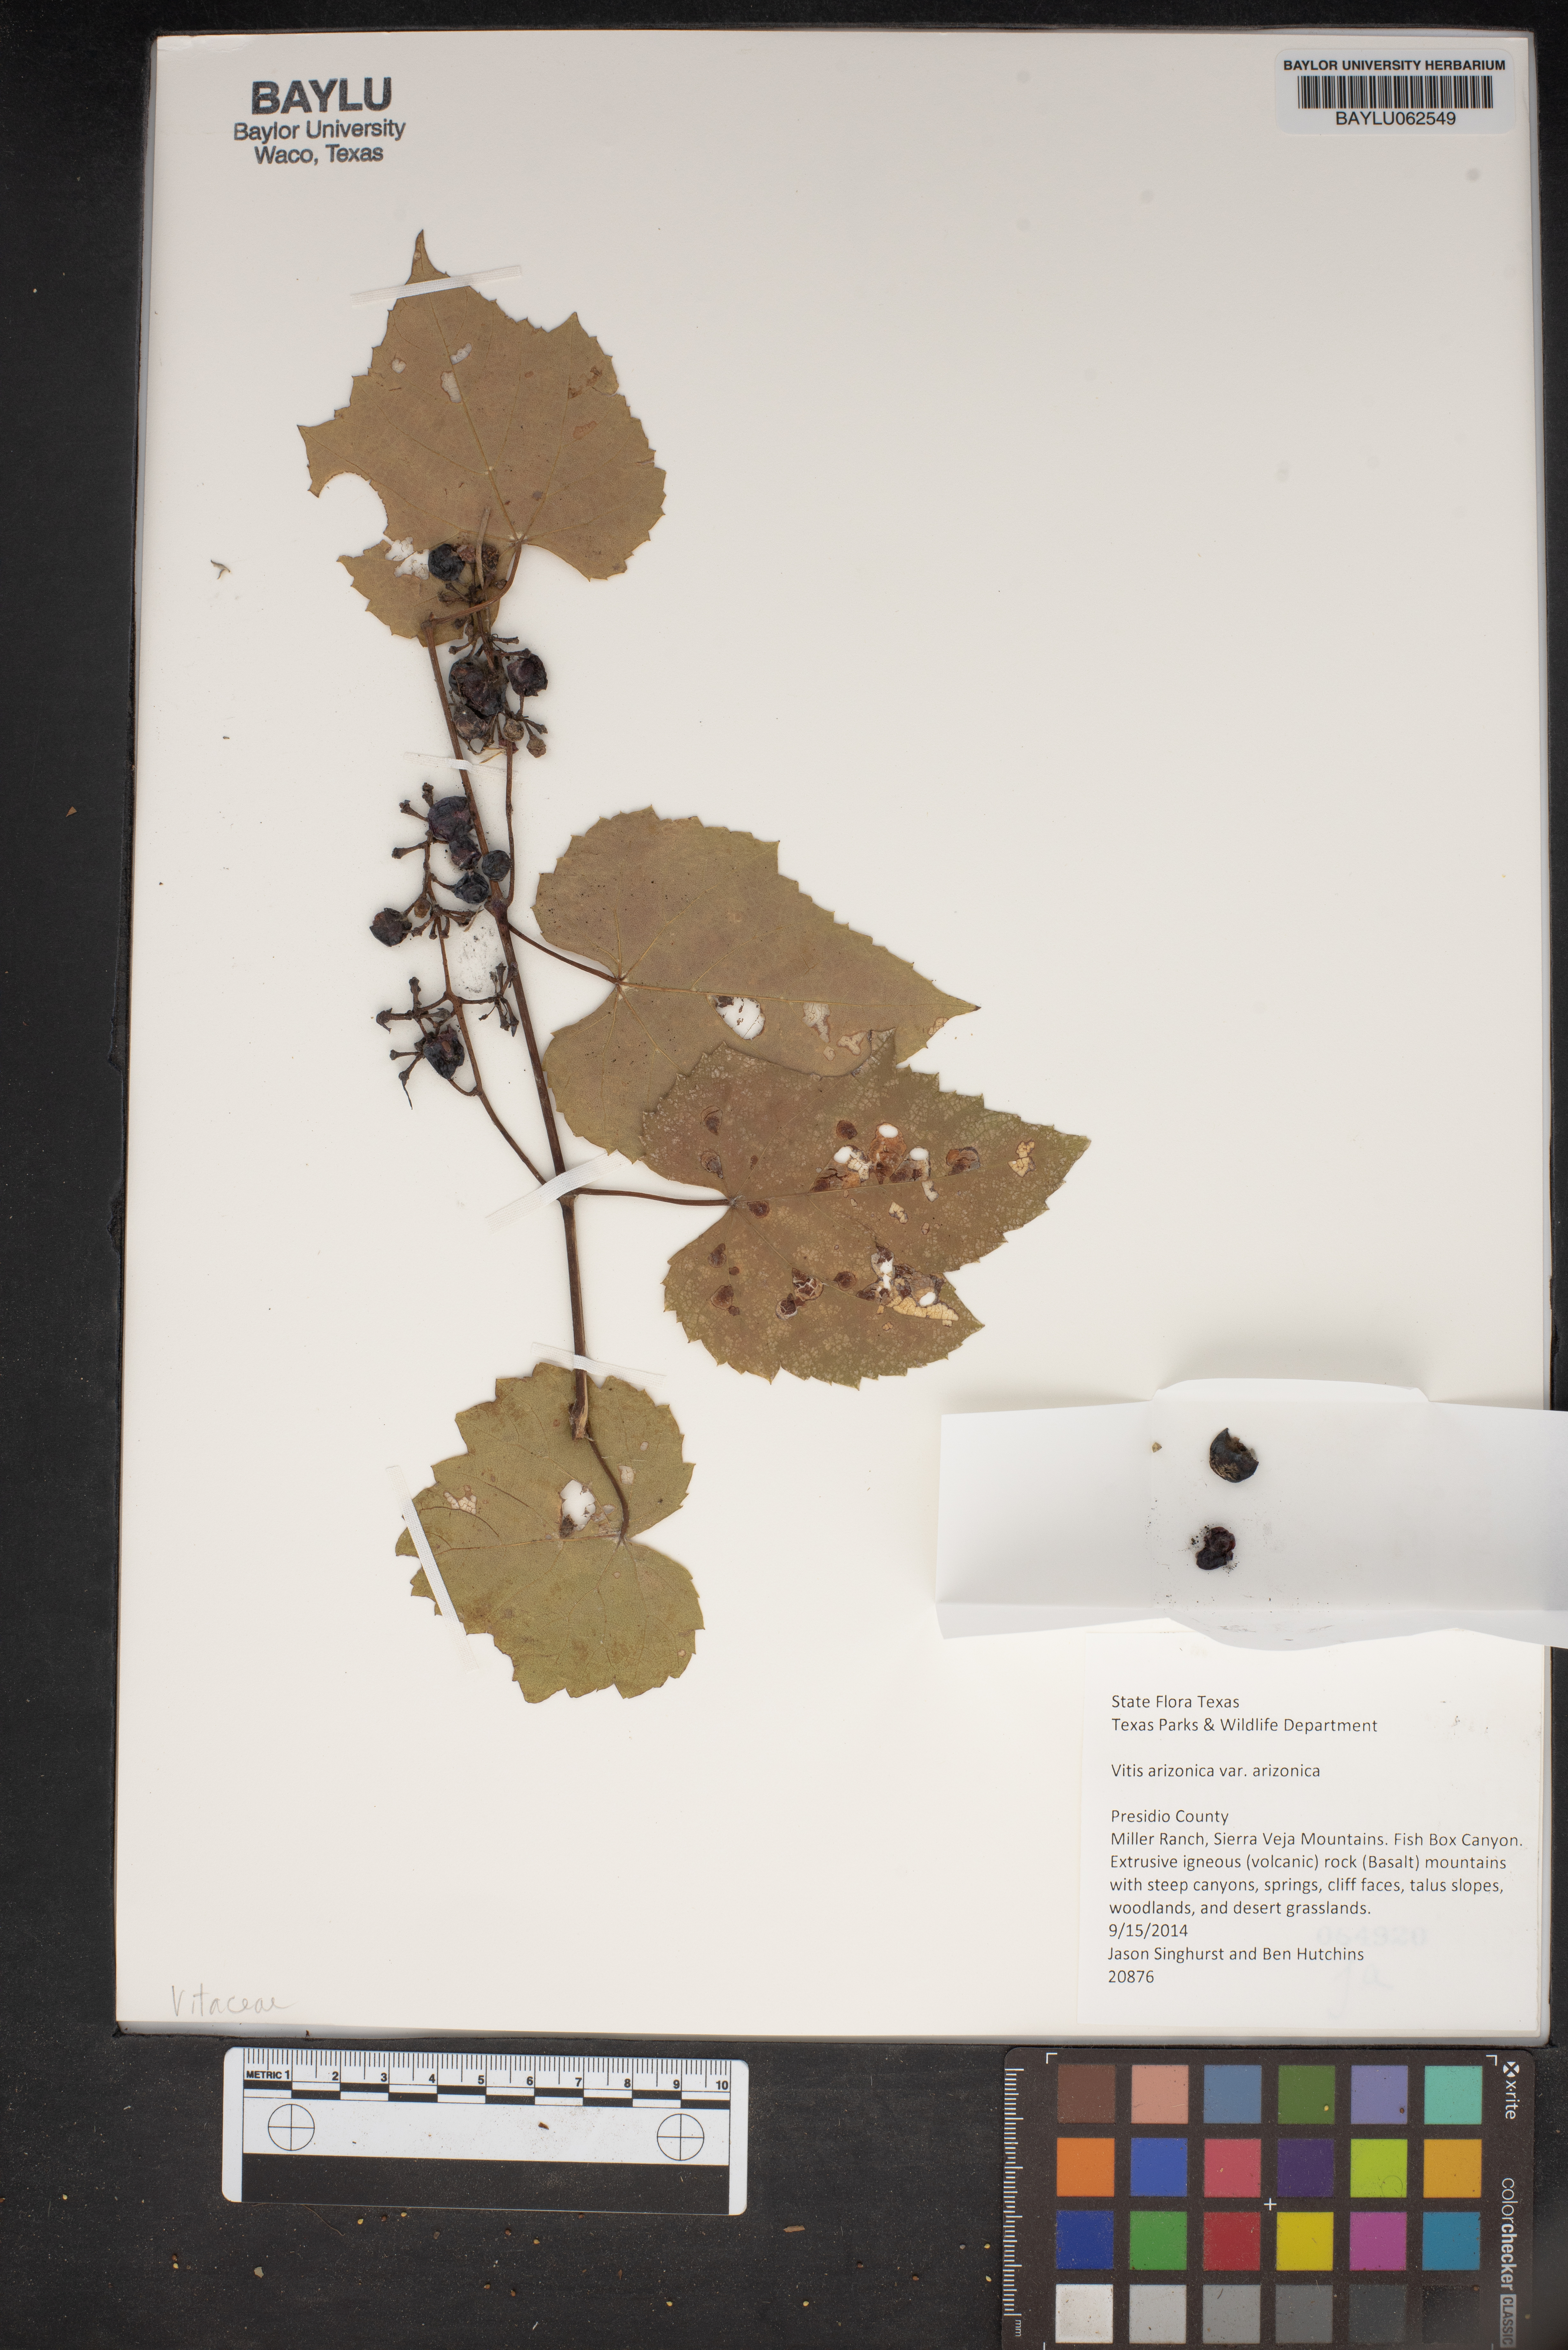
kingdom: Plantae
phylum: Tracheophyta
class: Magnoliopsida
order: Vitales
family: Vitaceae
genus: Vitis
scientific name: Vitis arizonica
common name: Canyon grape
